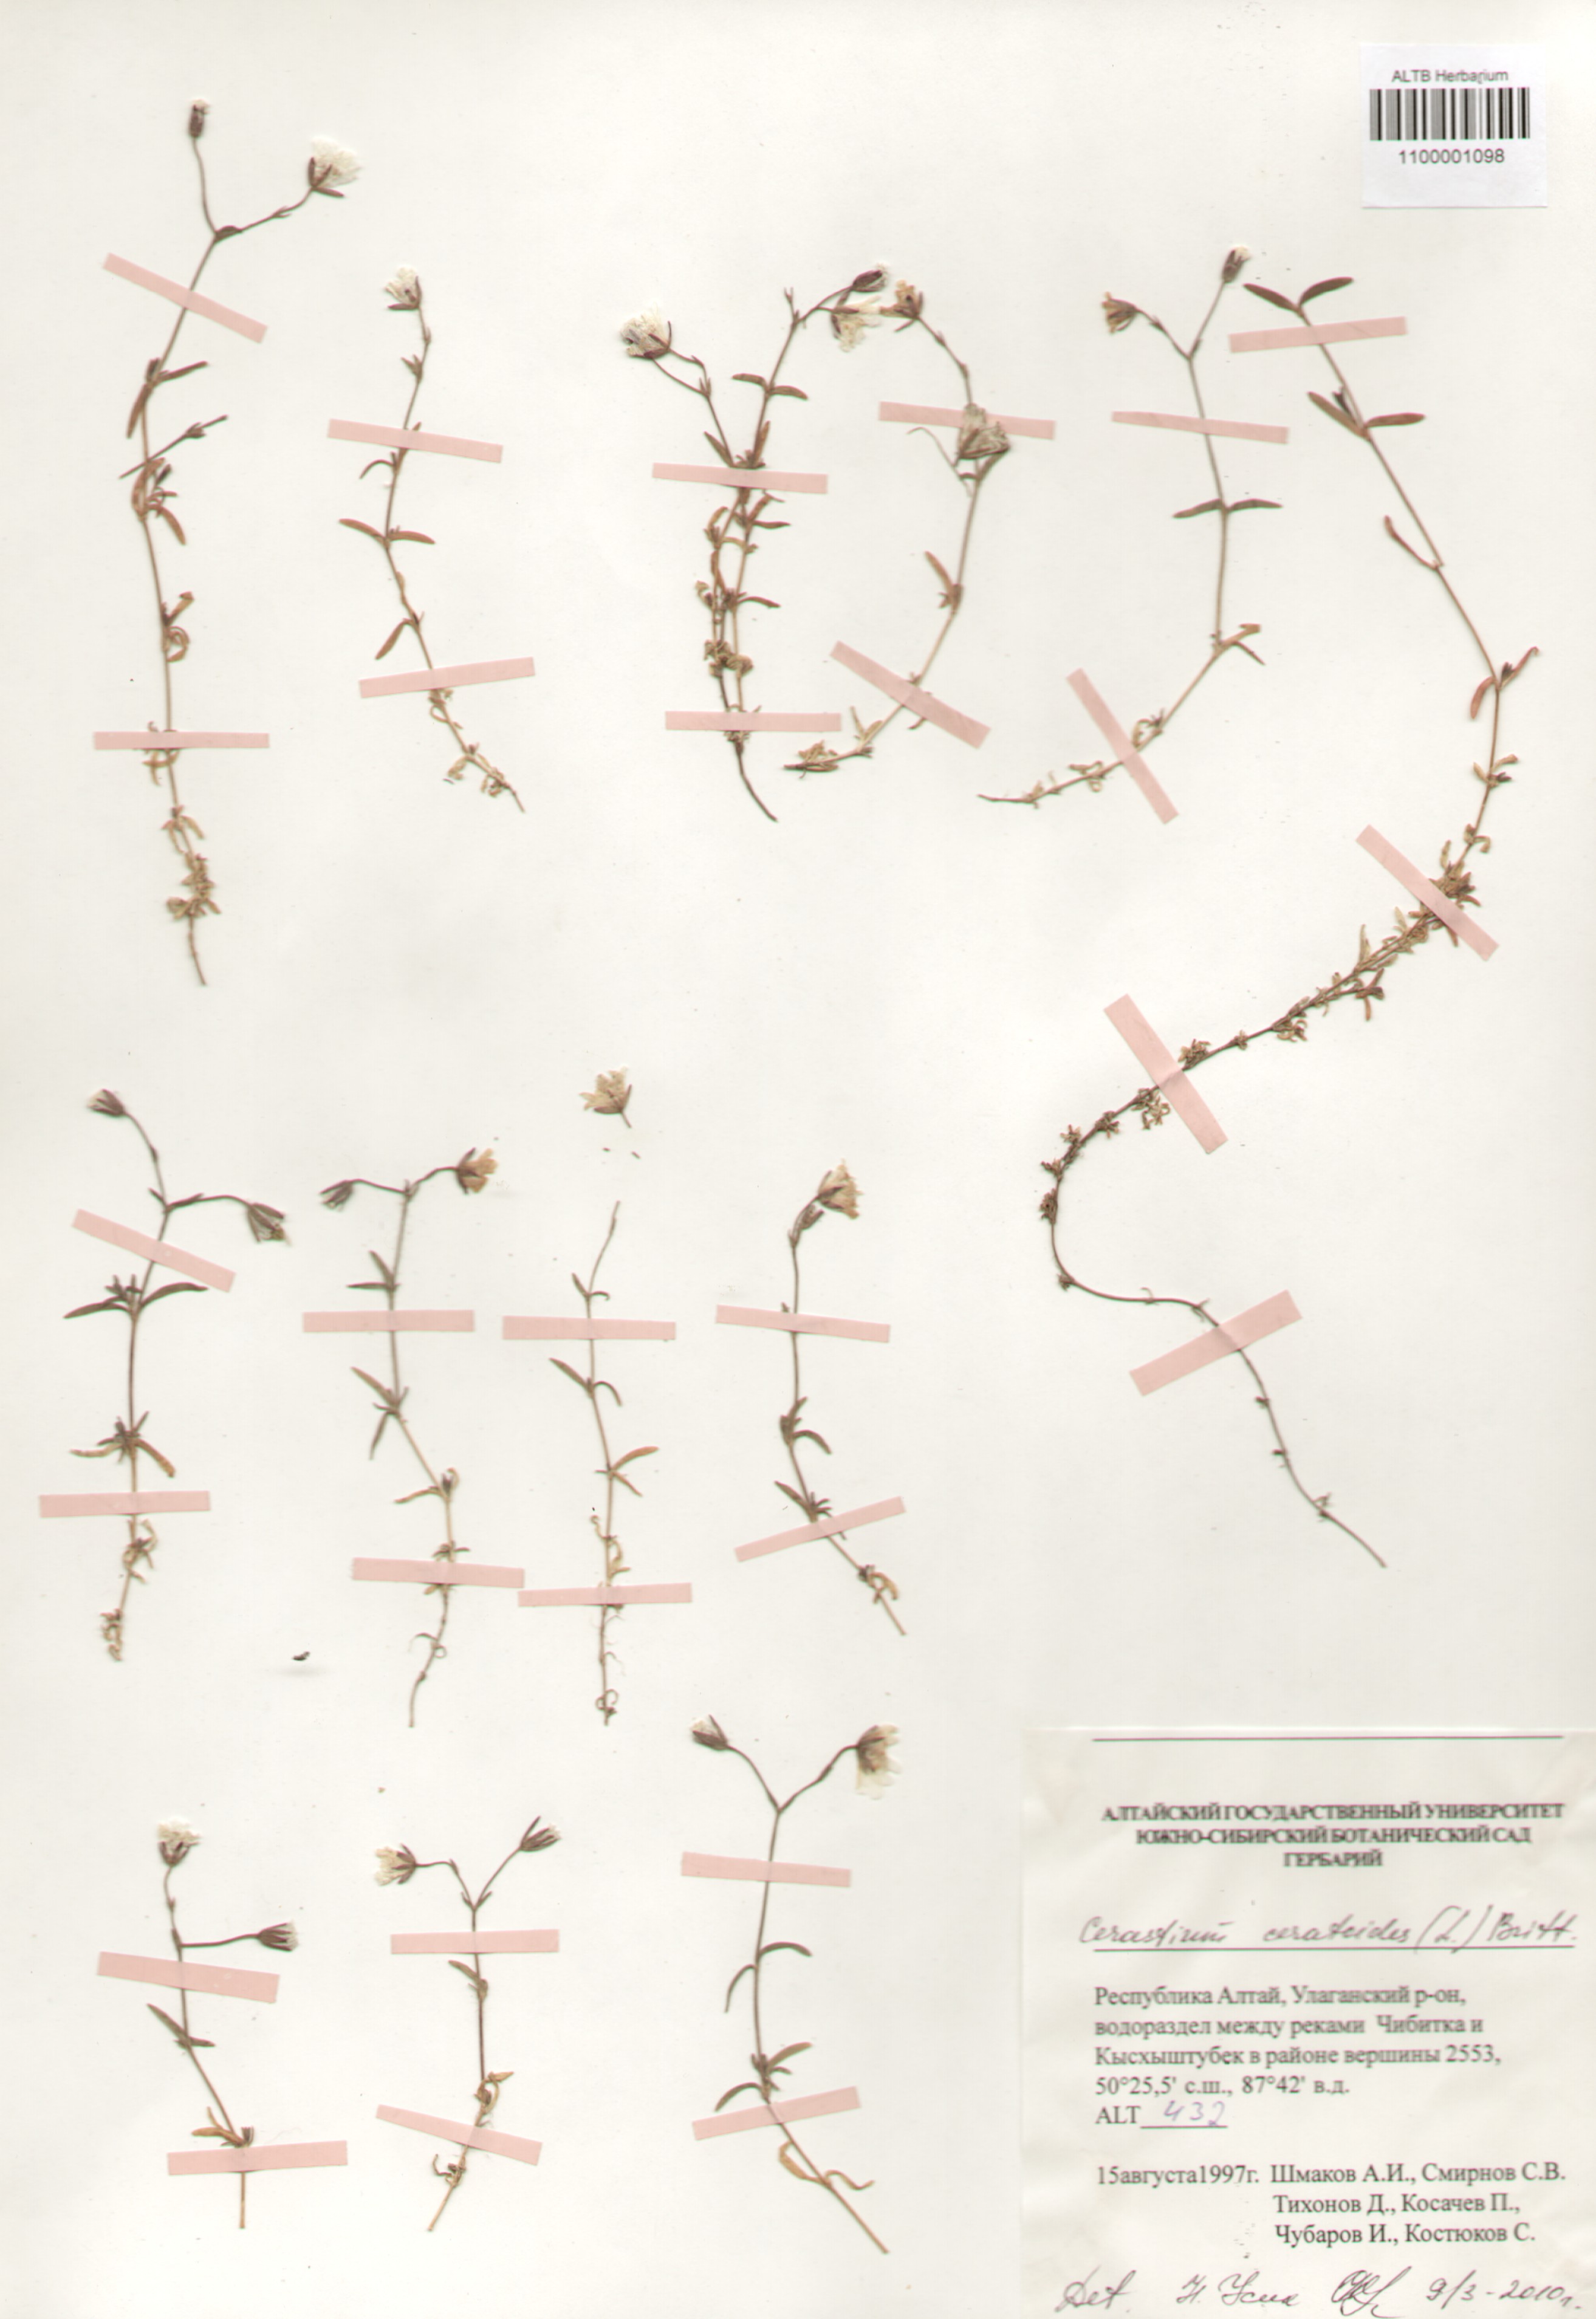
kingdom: Plantae
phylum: Tracheophyta
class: Magnoliopsida
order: Caryophyllales
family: Caryophyllaceae
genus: Dichodon
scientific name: Dichodon cerastoides
